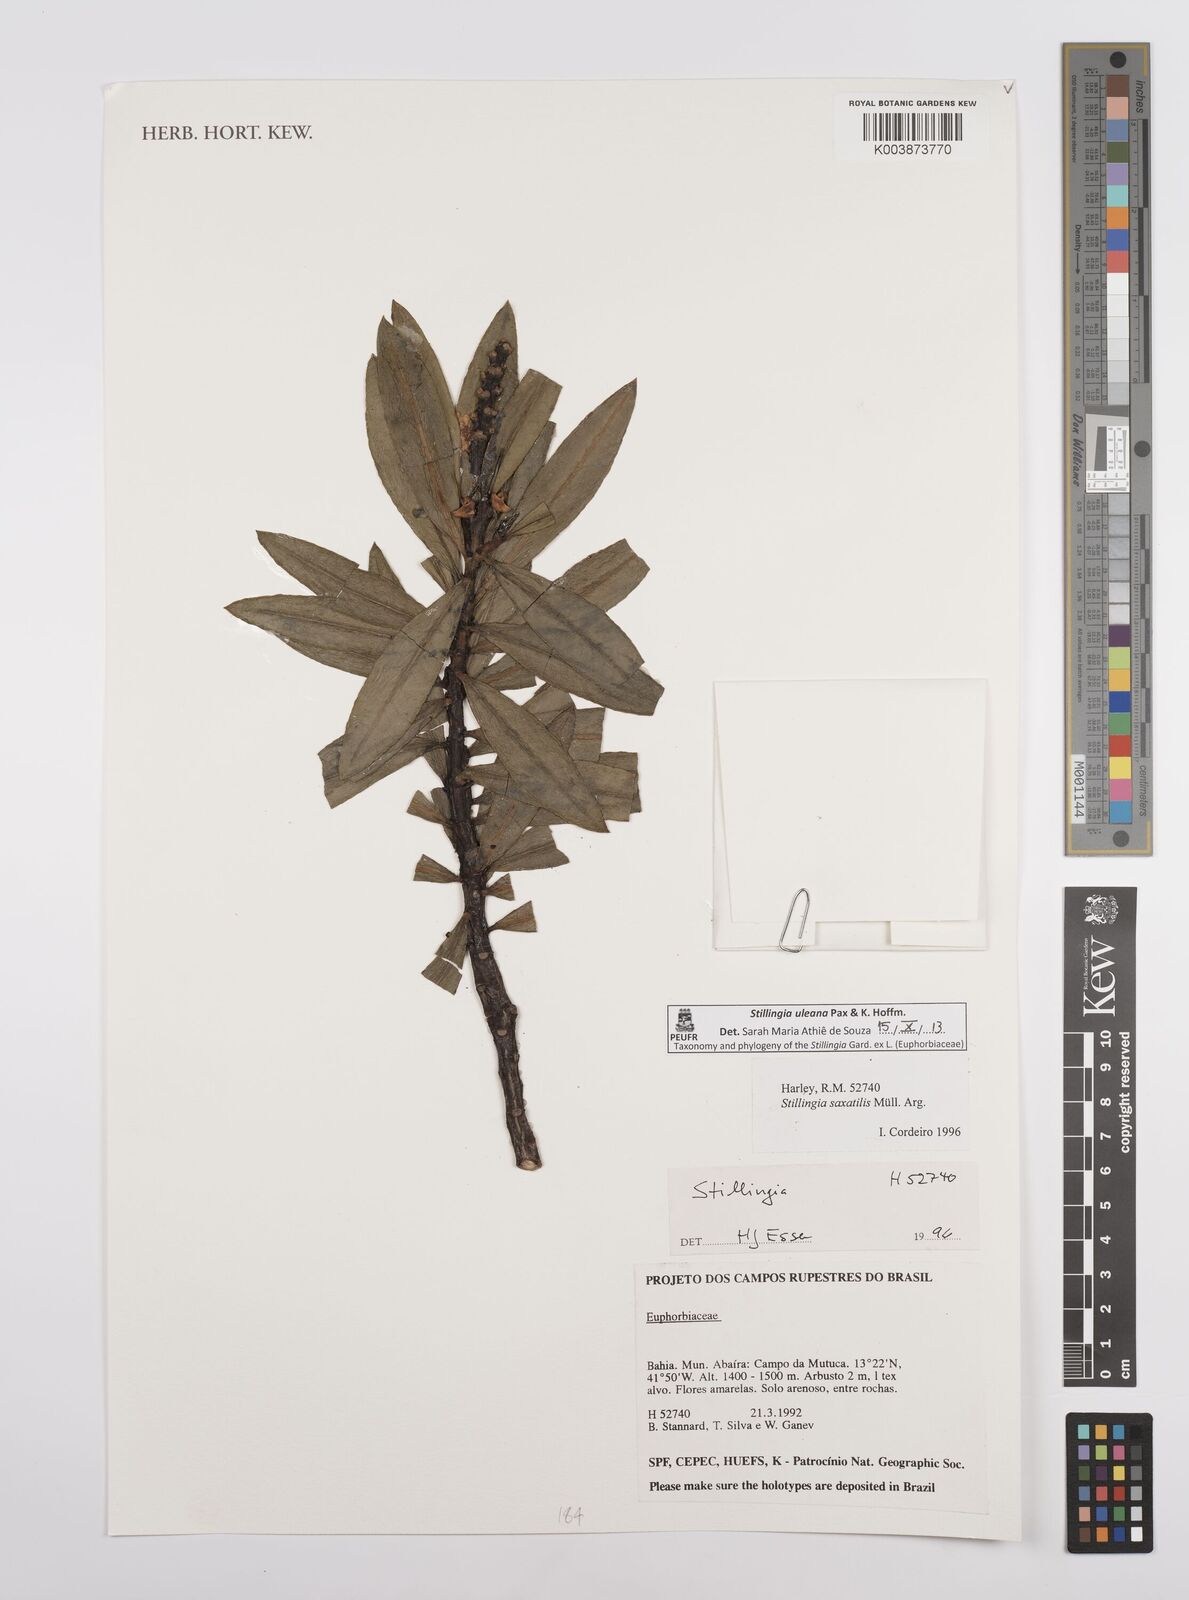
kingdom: Plantae
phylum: Tracheophyta
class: Magnoliopsida
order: Malpighiales
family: Euphorbiaceae
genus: Stillingia
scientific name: Stillingia uleana
